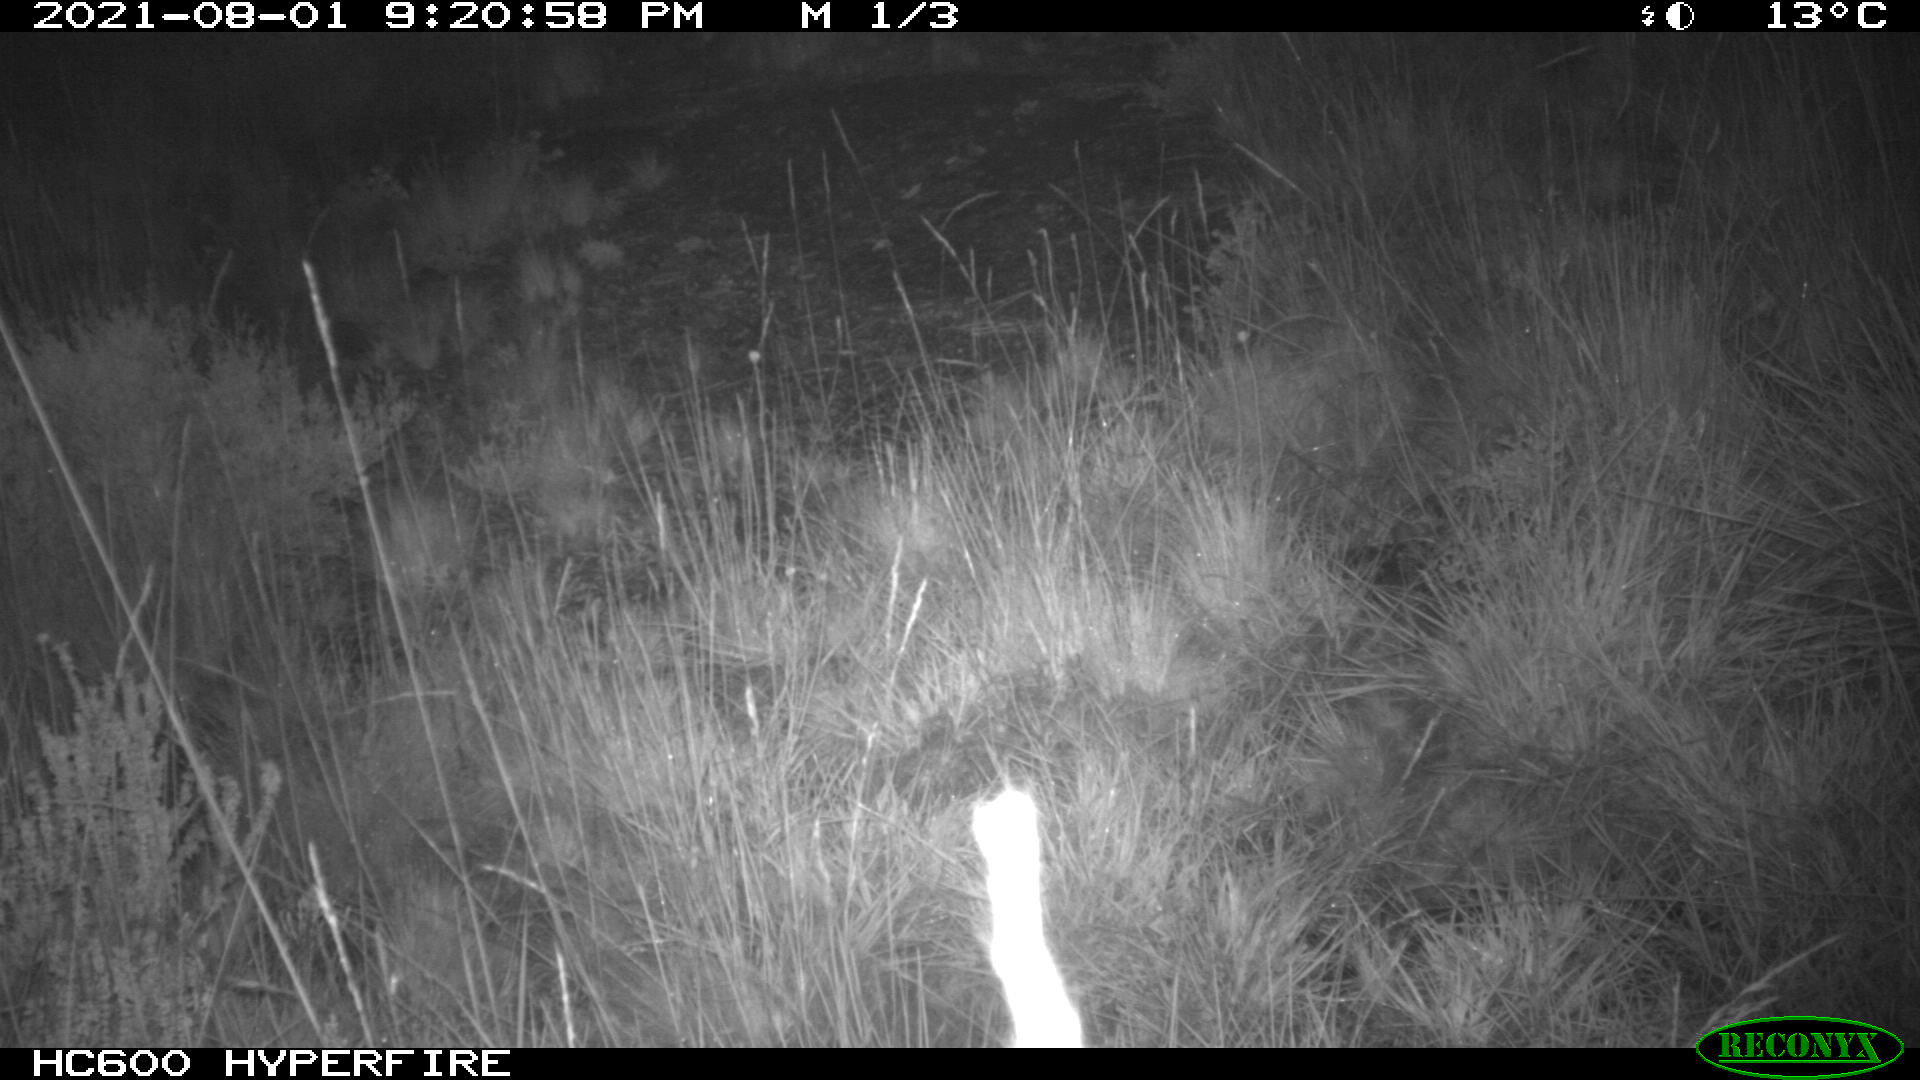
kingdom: Animalia
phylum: Chordata
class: Mammalia
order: Artiodactyla
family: Suidae
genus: Sus
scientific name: Sus scrofa
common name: Wild boar
